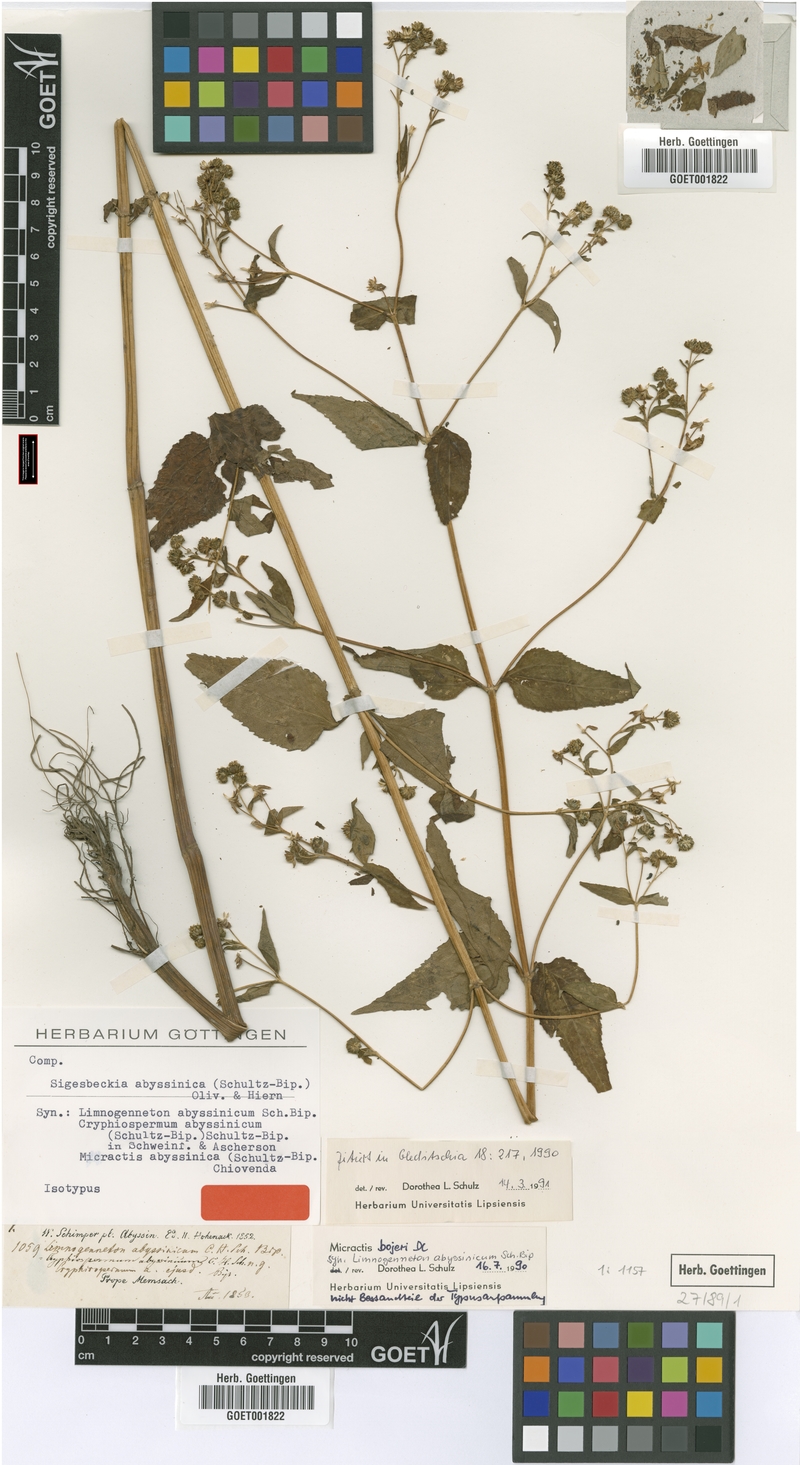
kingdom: Plantae
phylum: Tracheophyta
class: Magnoliopsida
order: Asterales
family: Asteraceae
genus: Micractis
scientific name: Micractis bojeri
